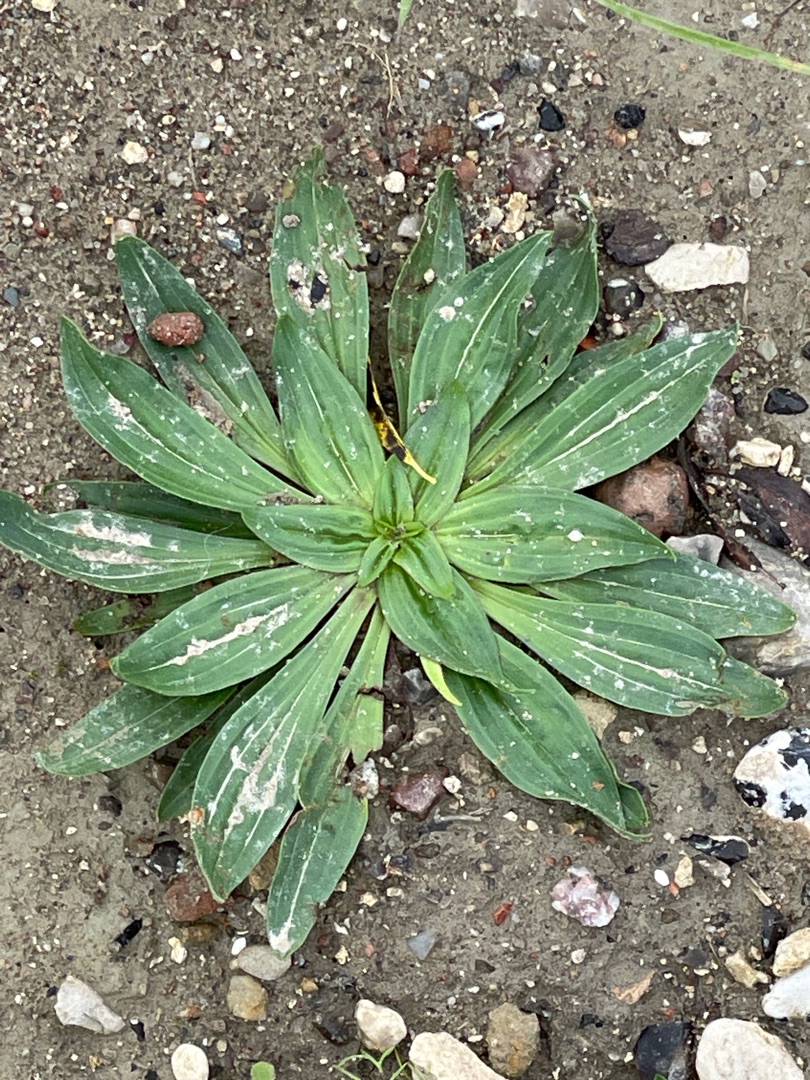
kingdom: Plantae
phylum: Tracheophyta
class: Magnoliopsida
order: Lamiales
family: Plantaginaceae
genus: Plantago
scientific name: Plantago lanceolata
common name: Lancet-vejbred
